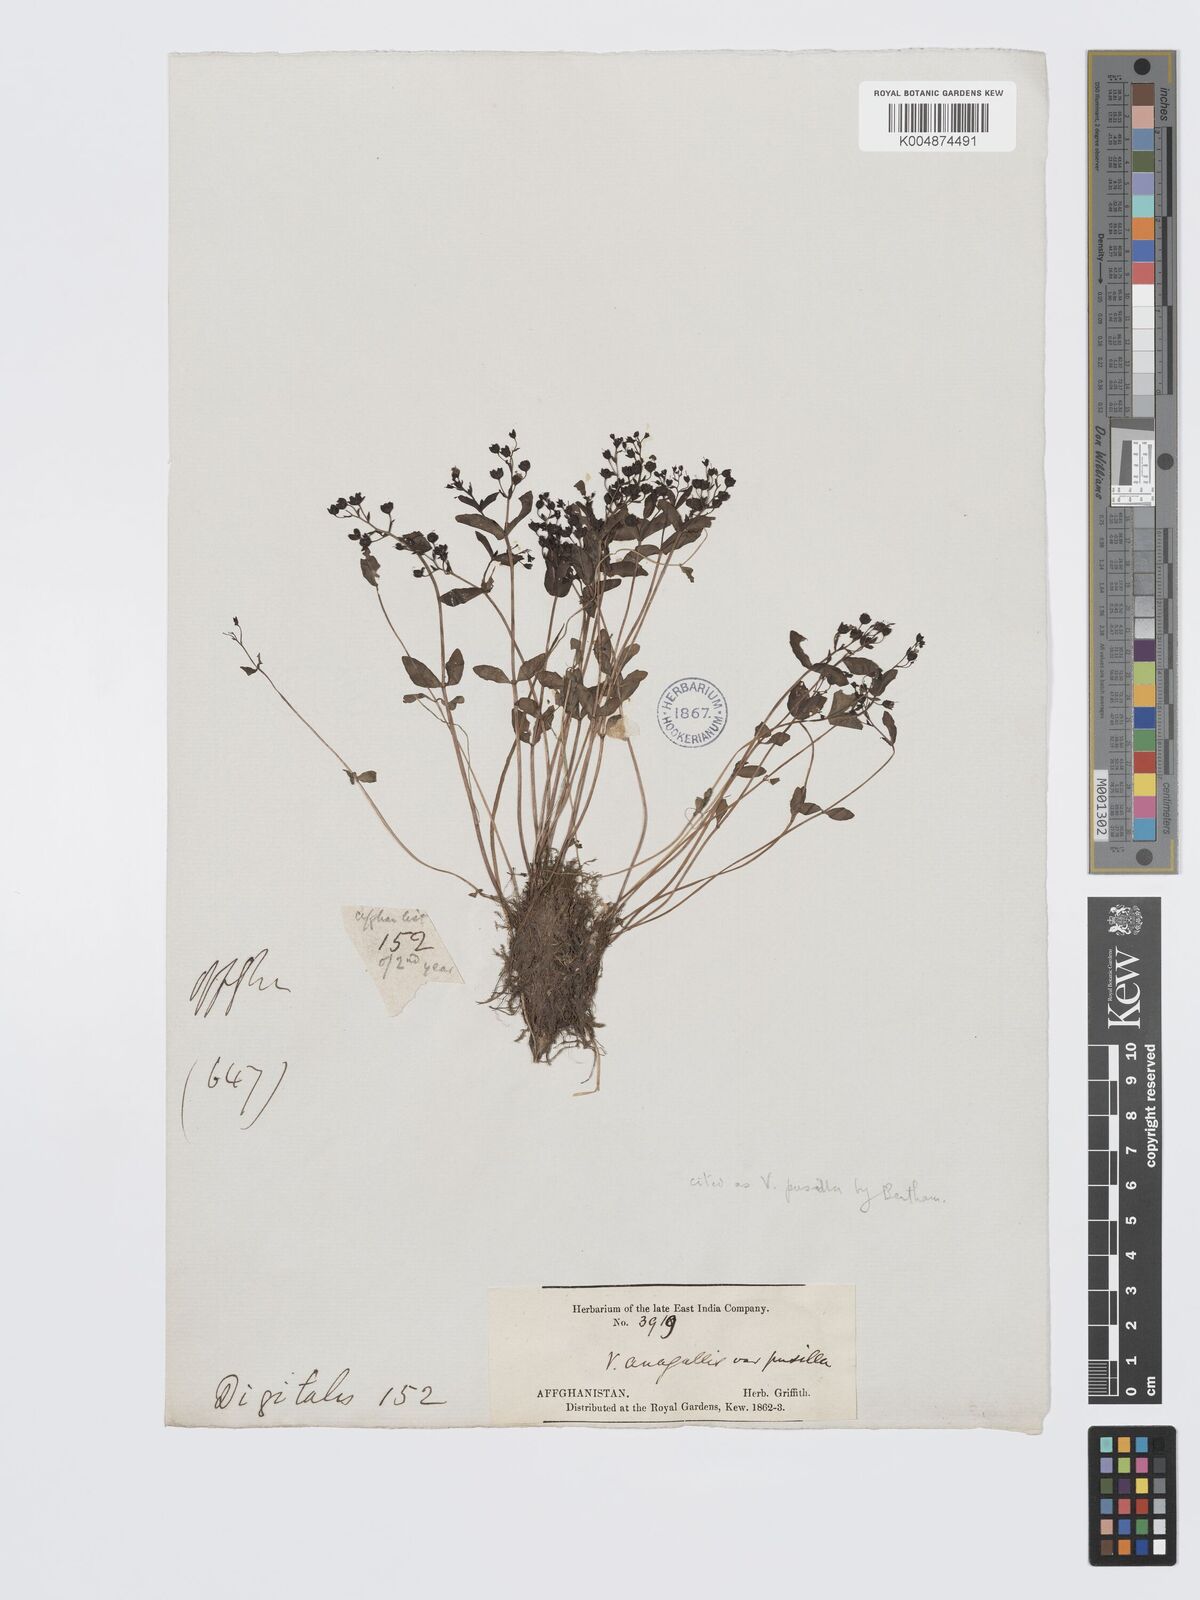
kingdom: Plantae
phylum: Tracheophyta
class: Magnoliopsida
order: Lamiales
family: Plantaginaceae
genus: Veronica
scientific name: Veronica oxycarpa
